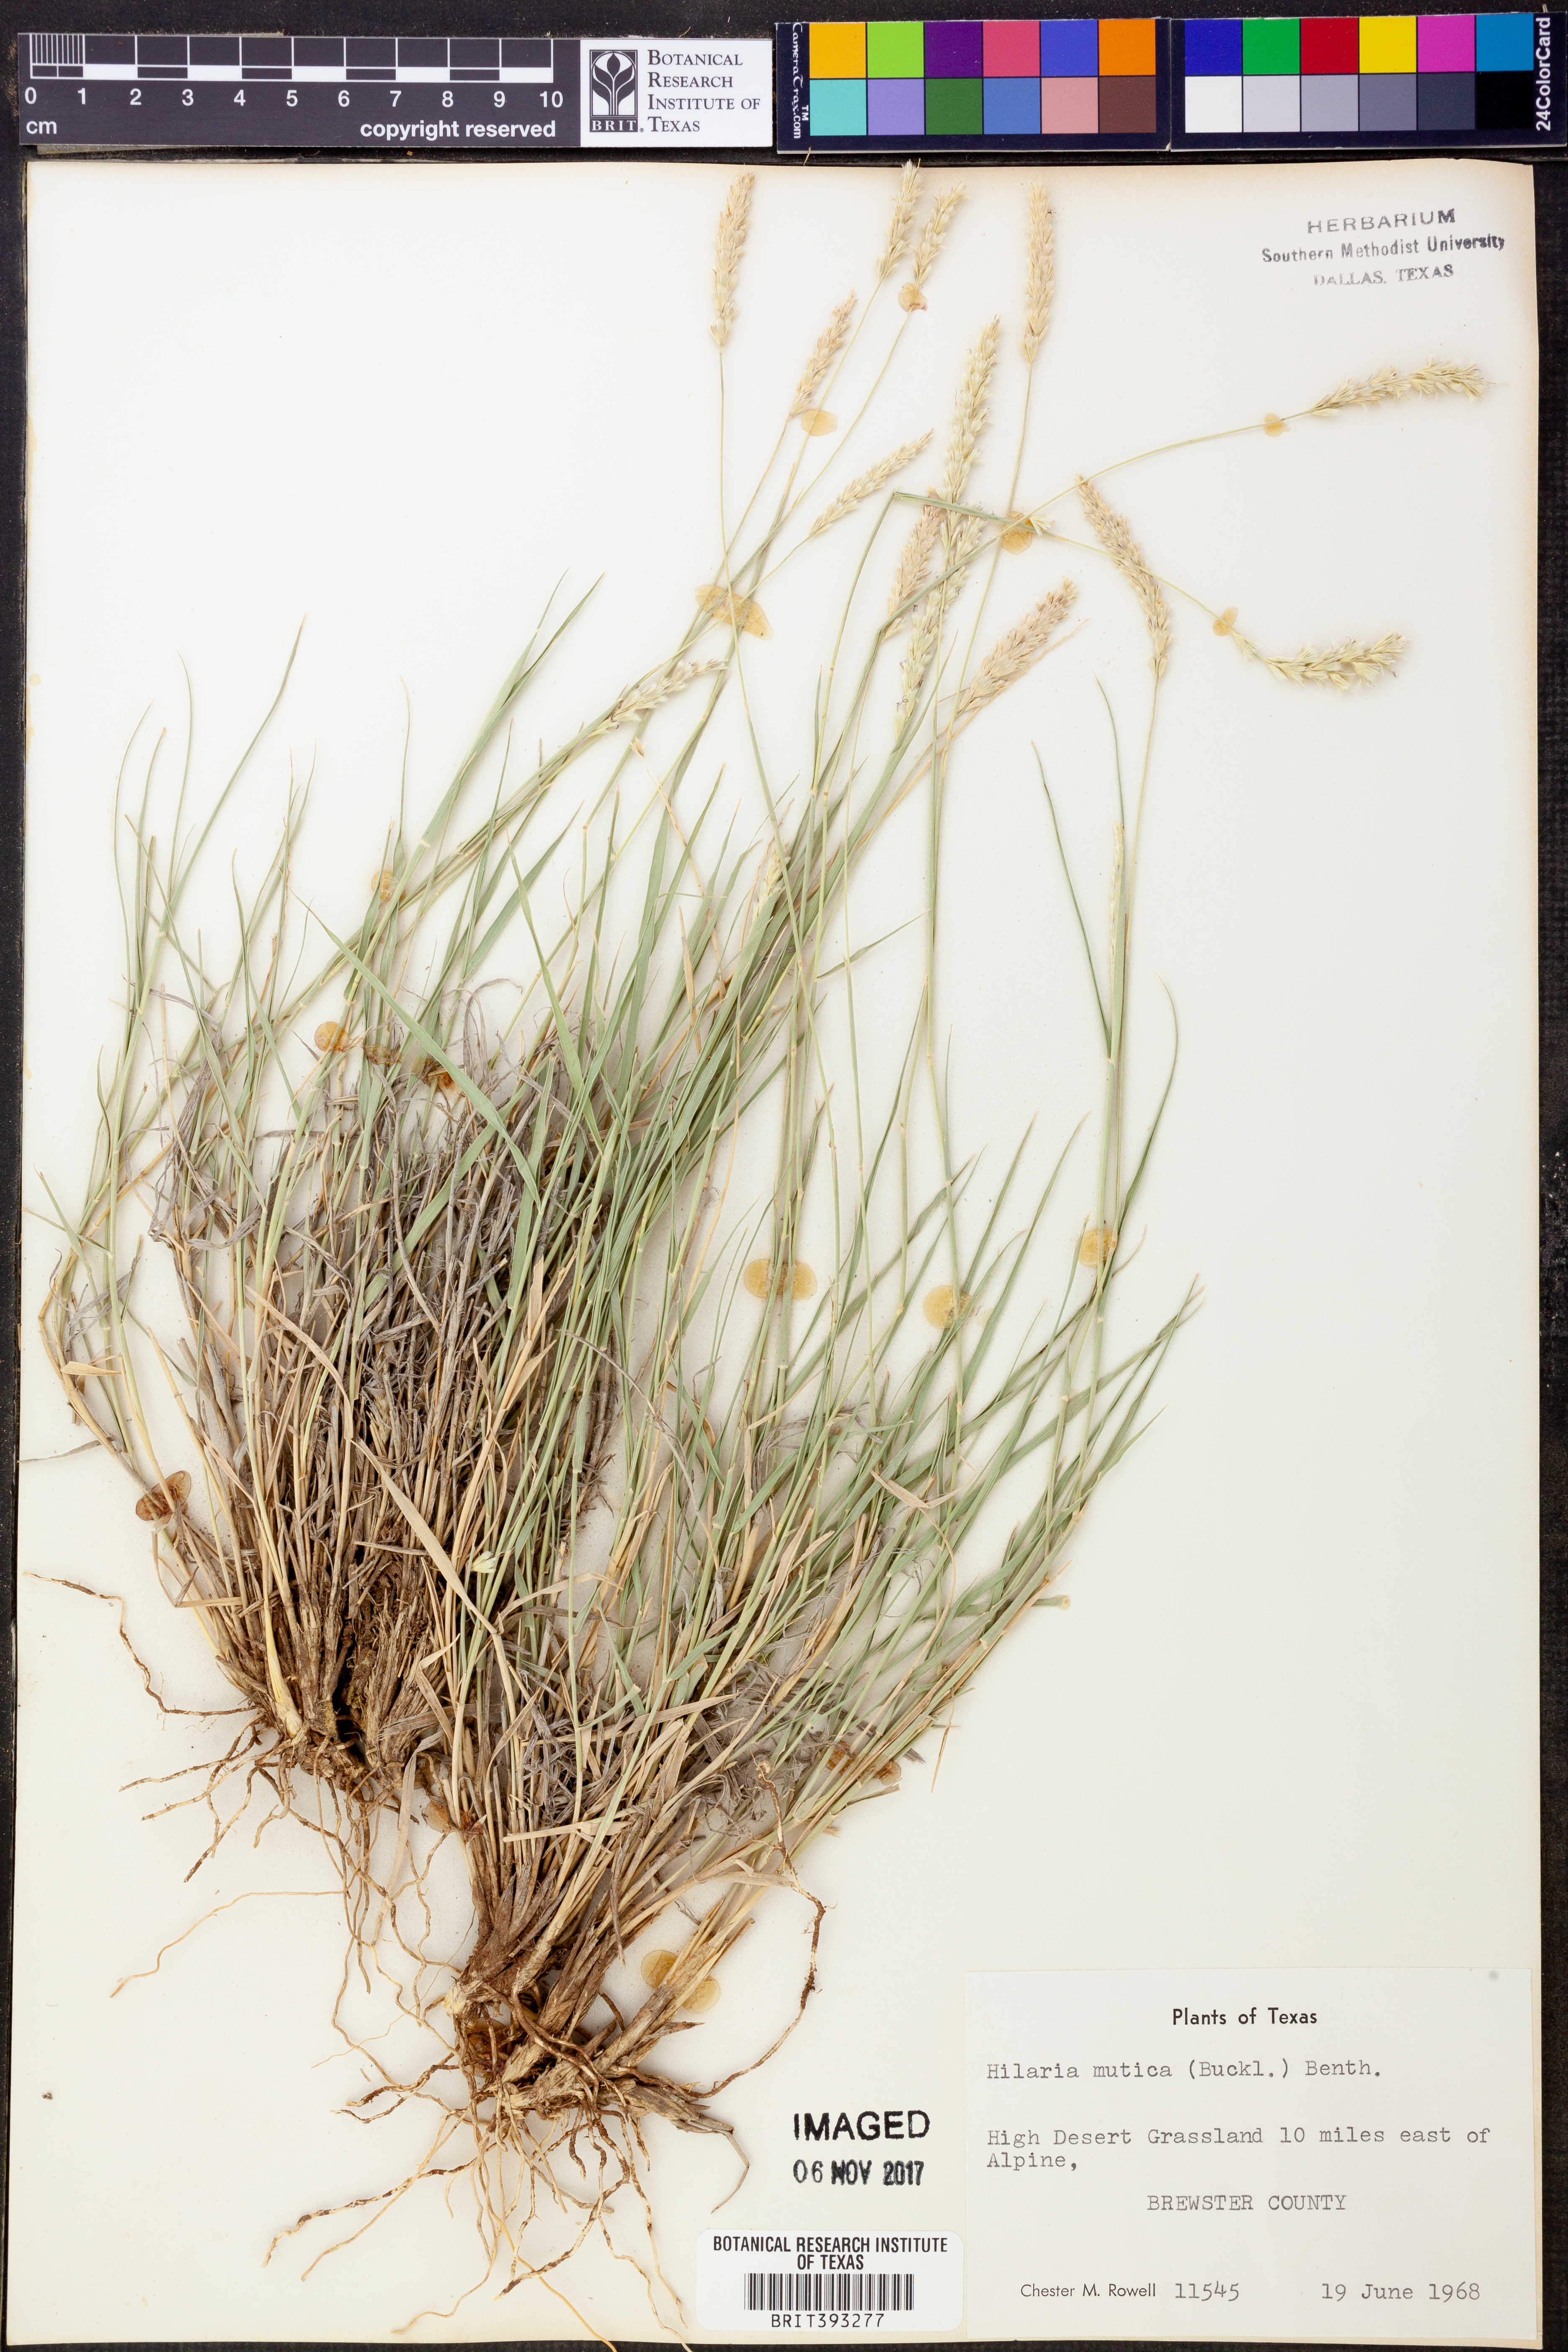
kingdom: Plantae
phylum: Tracheophyta
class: Liliopsida
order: Poales
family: Poaceae
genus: Hilaria
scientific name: Hilaria mutica
